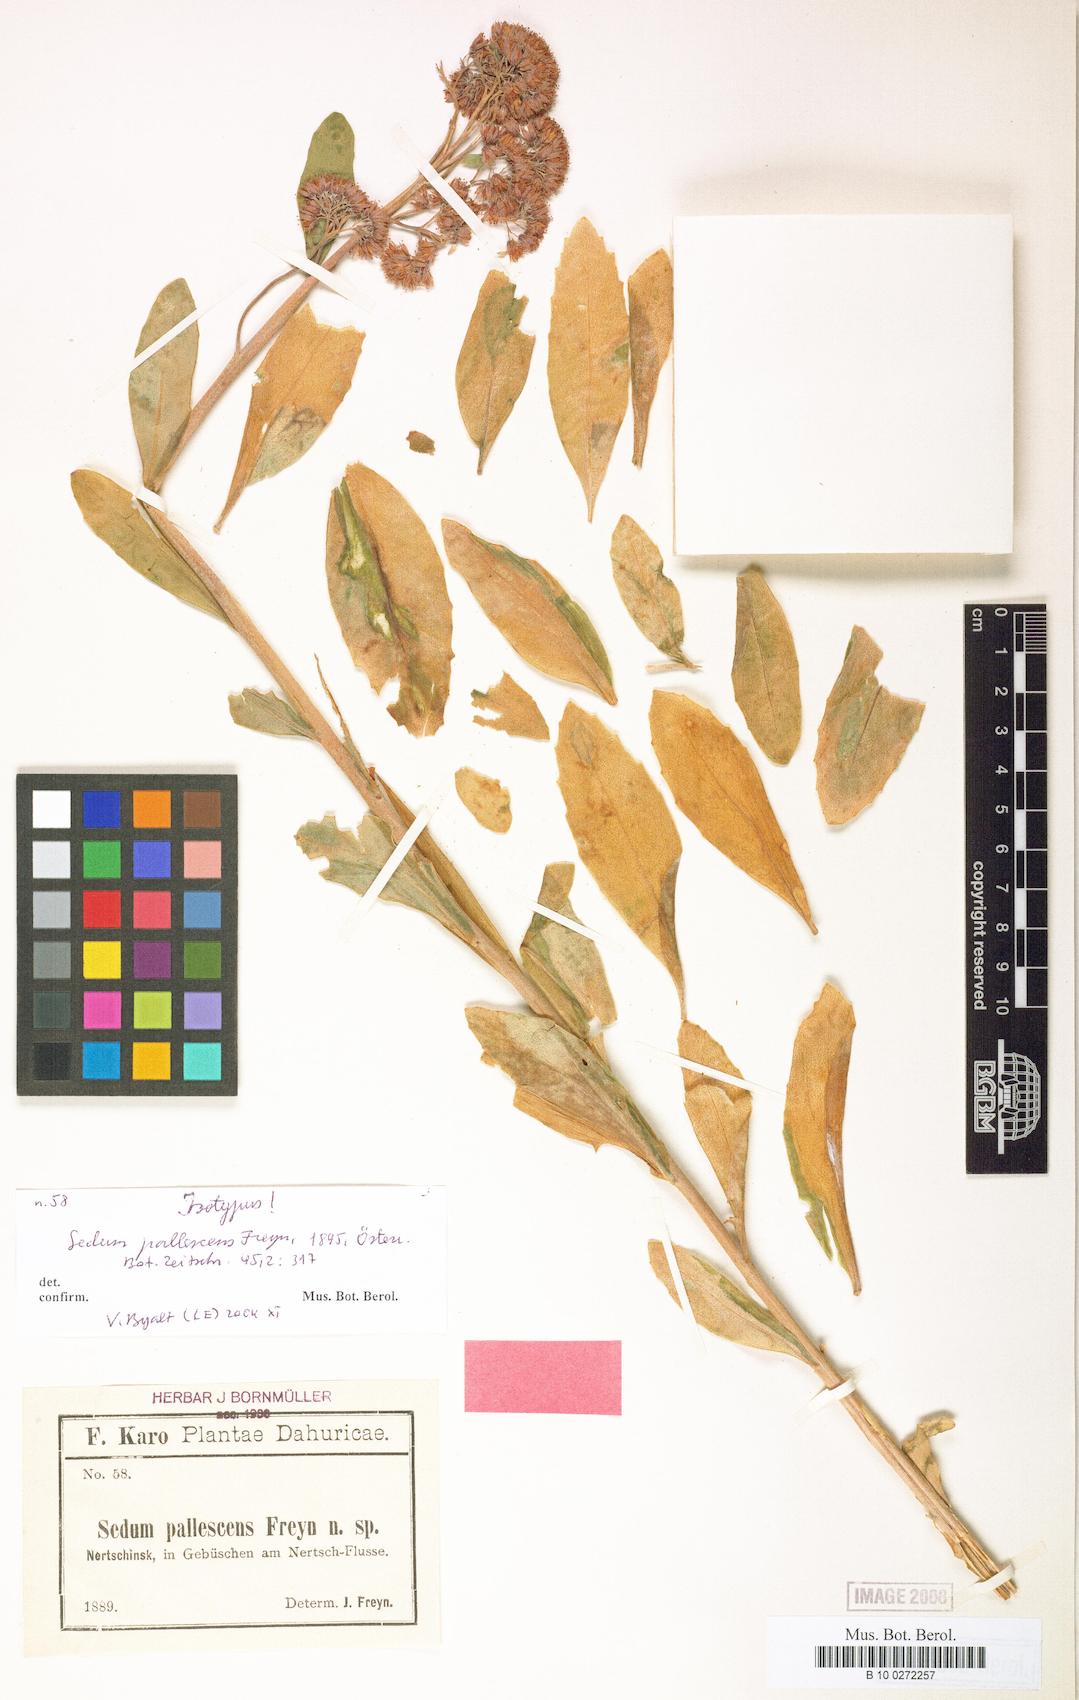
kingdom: Plantae
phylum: Tracheophyta
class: Magnoliopsida
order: Saxifragales
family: Crassulaceae
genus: Hylotelephium
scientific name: Hylotelephium pallescens
